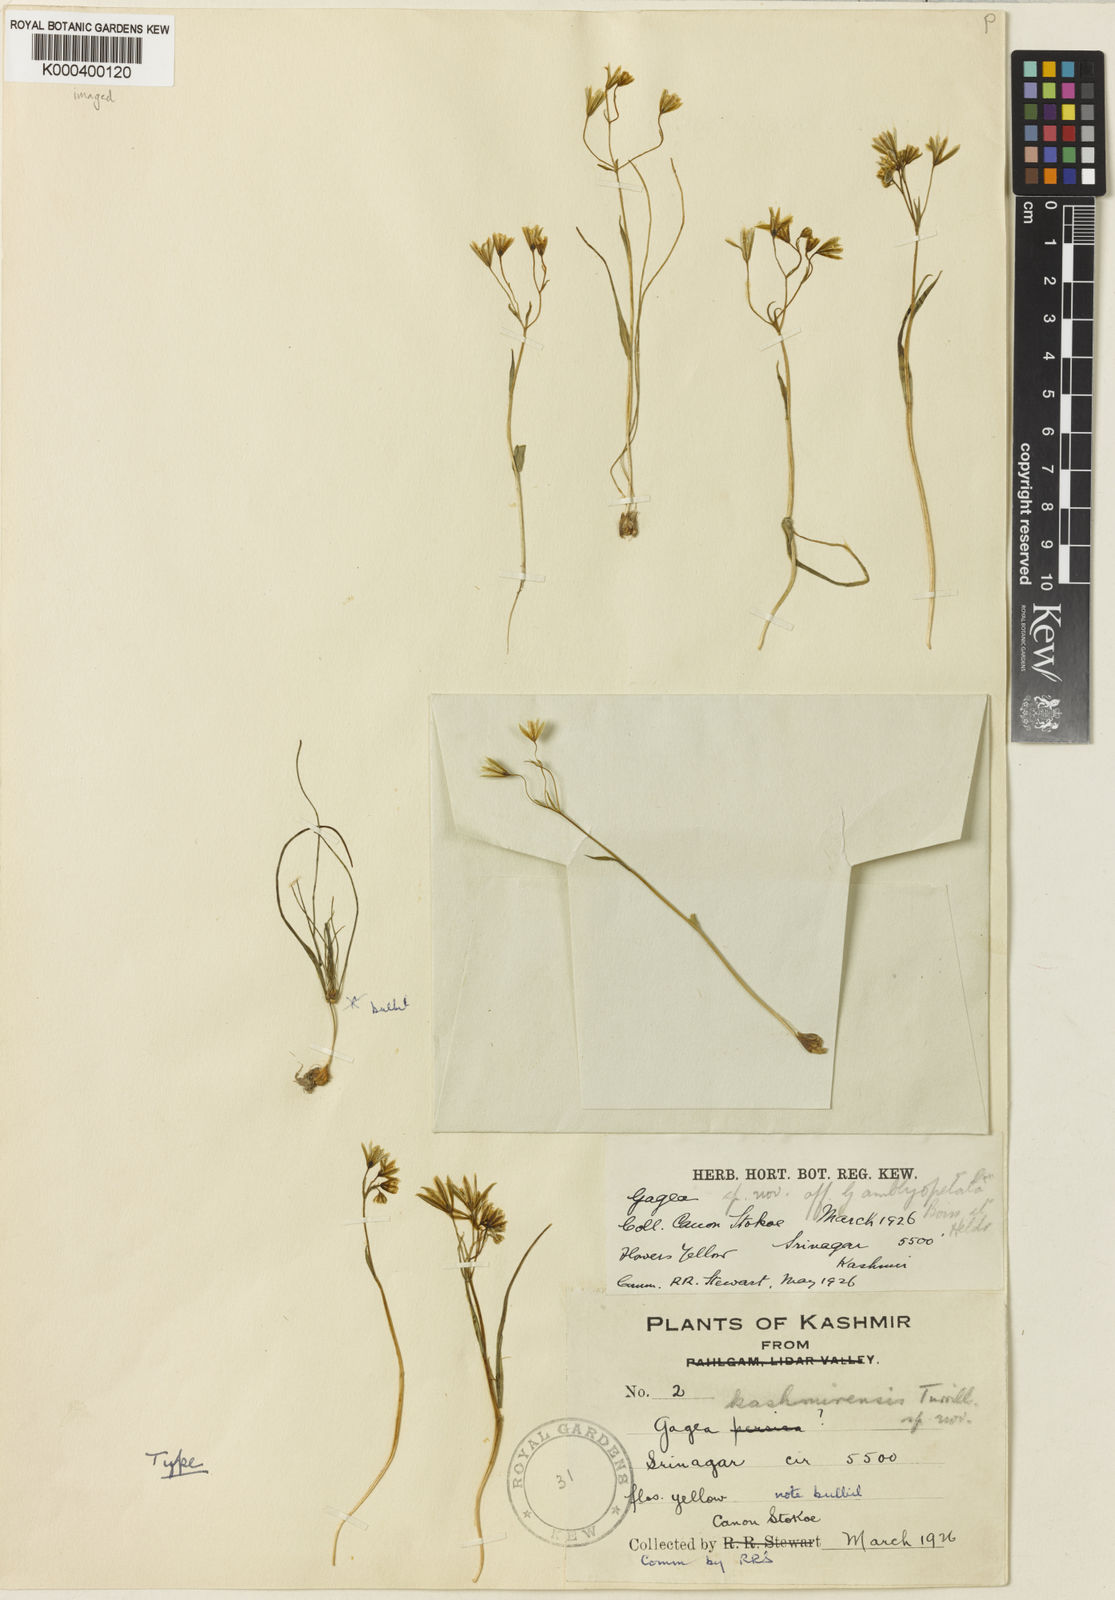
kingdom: Plantae
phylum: Tracheophyta
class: Liliopsida
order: Liliales
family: Liliaceae
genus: Gagea
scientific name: Gagea tenera
